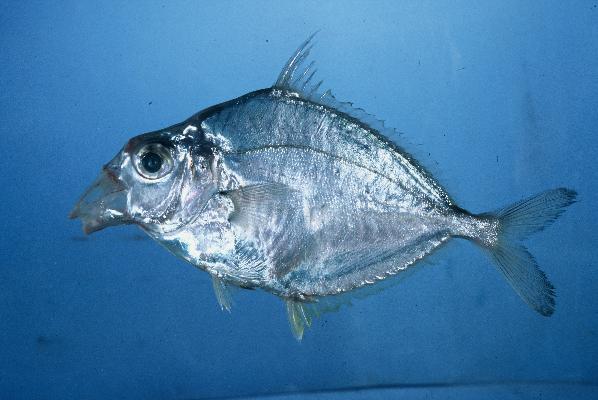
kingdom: Animalia
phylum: Chordata
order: Perciformes
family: Leiognathidae
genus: Leiognathus
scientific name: Leiognathus equulus
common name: Common ponyfish
